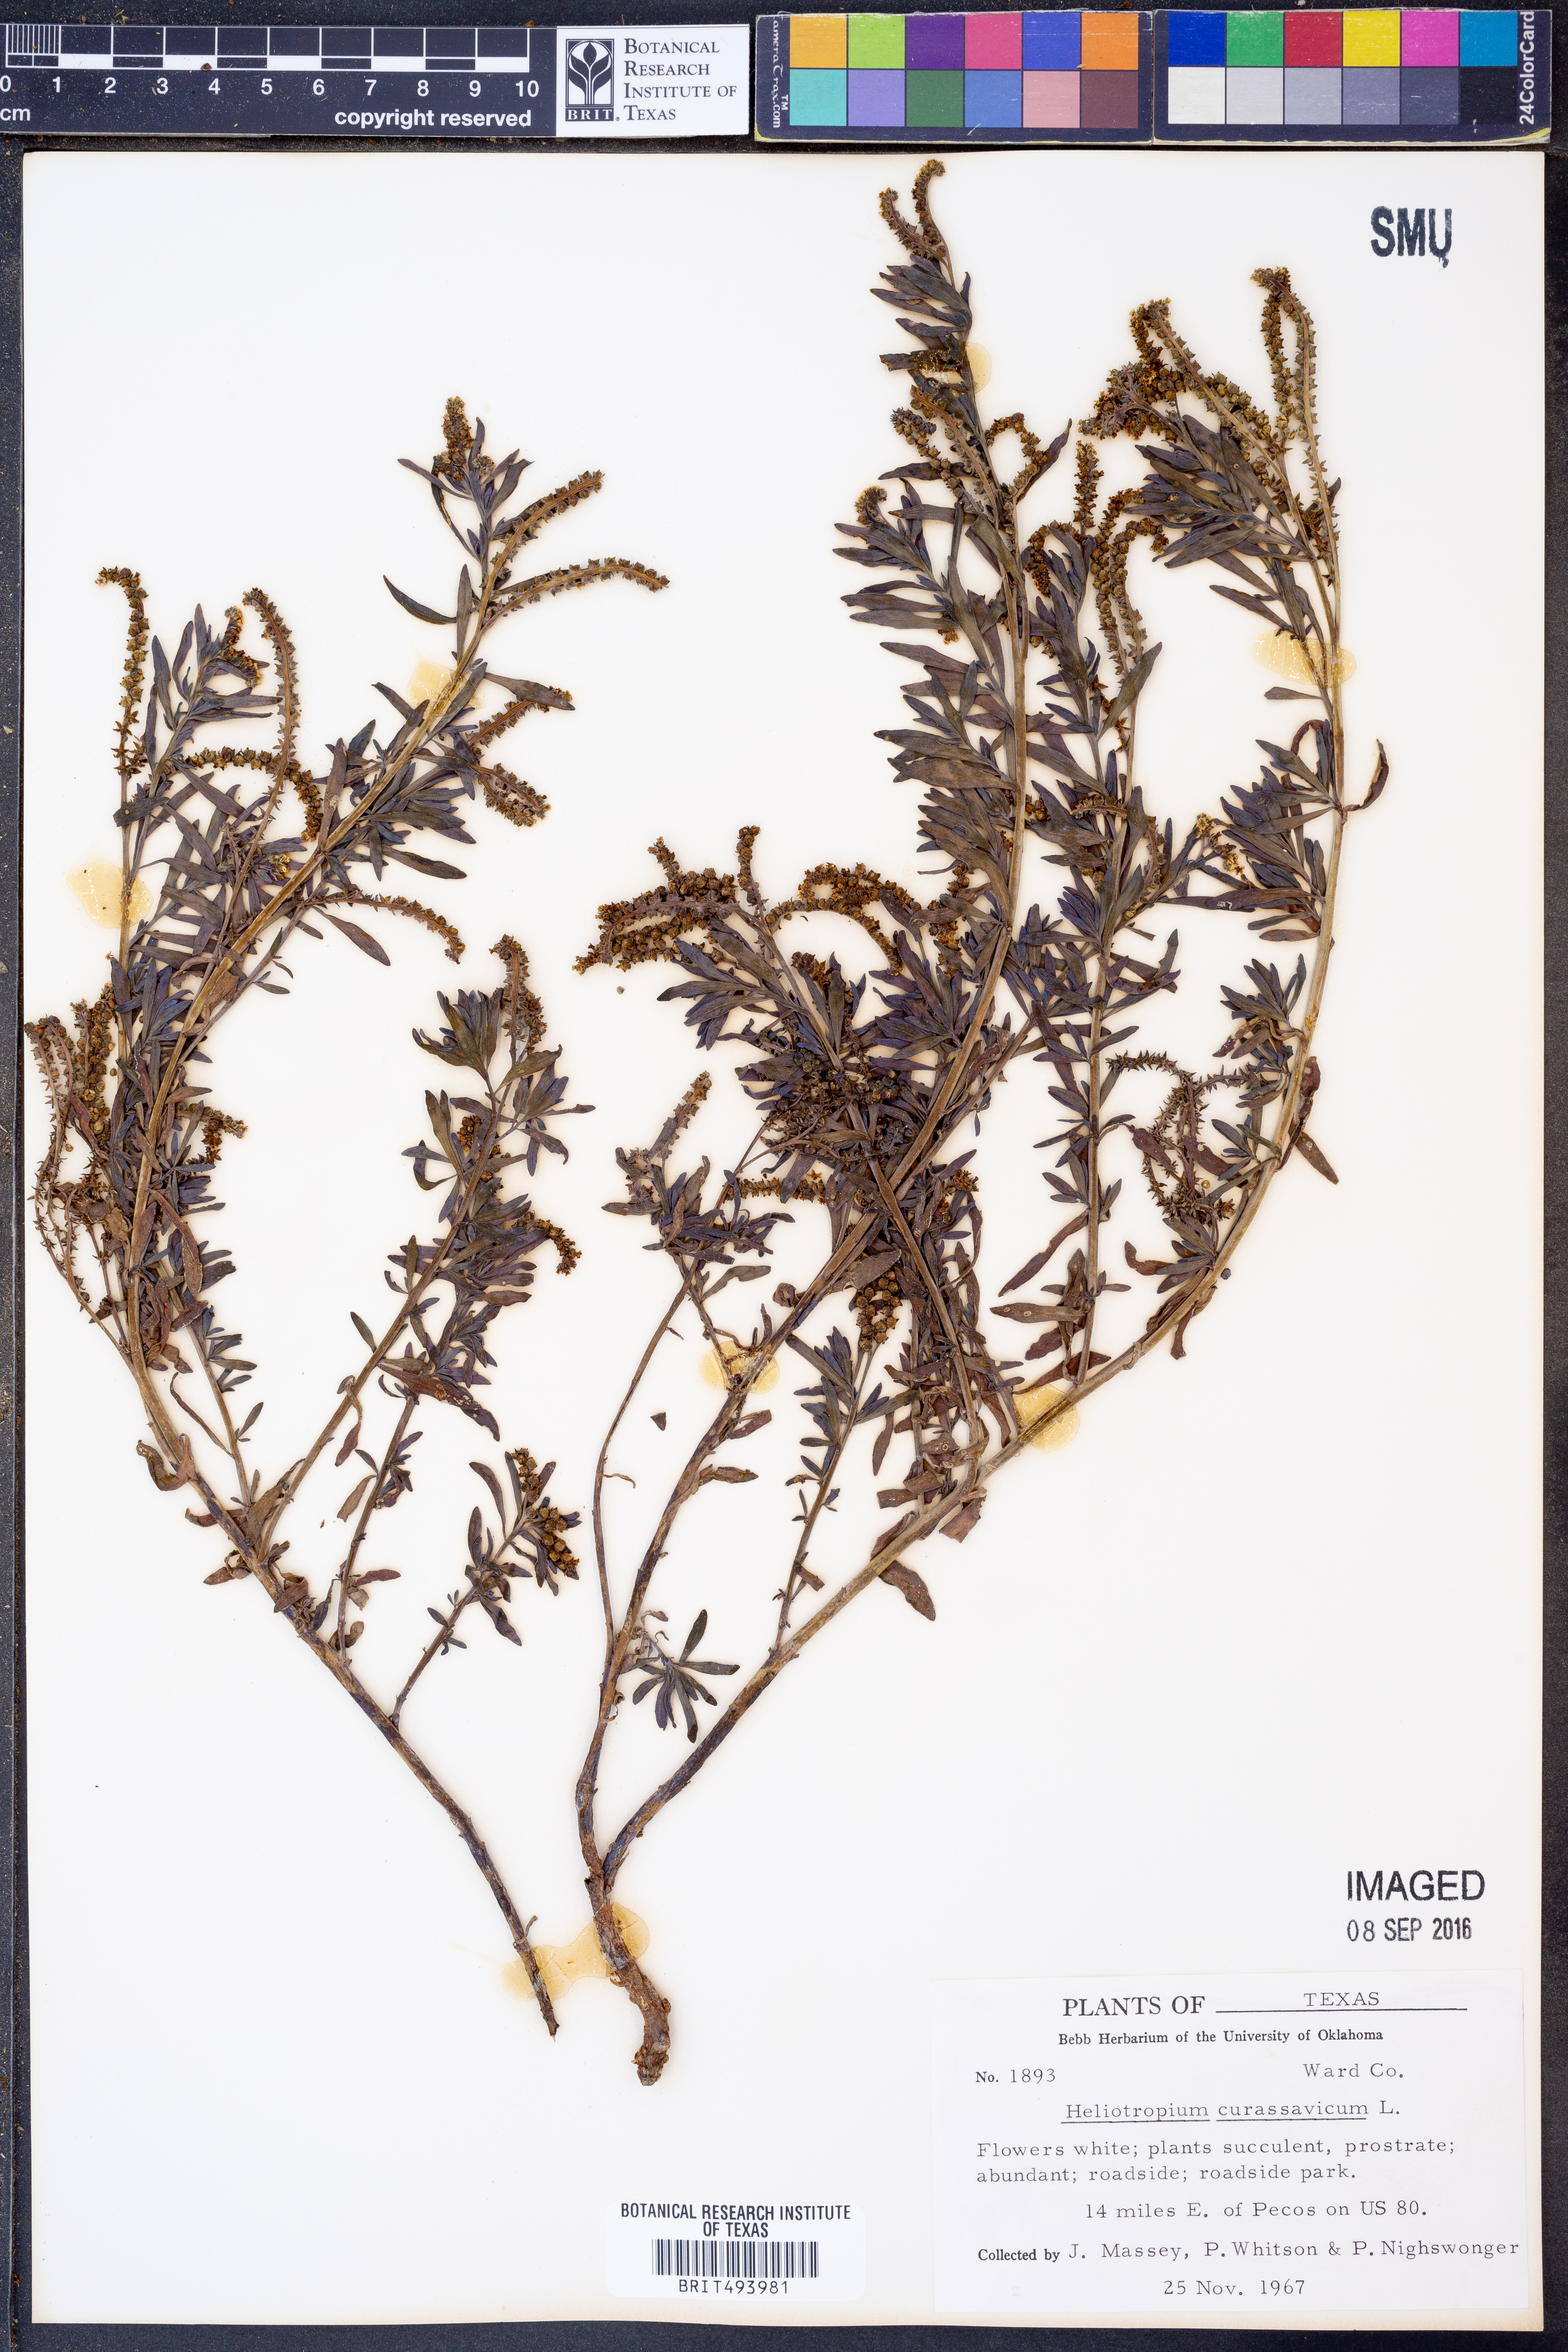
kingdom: Plantae
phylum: Tracheophyta
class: Magnoliopsida
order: Boraginales
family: Heliotropiaceae
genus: Heliotropium
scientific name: Heliotropium curassavicum
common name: Seaside heliotrope
